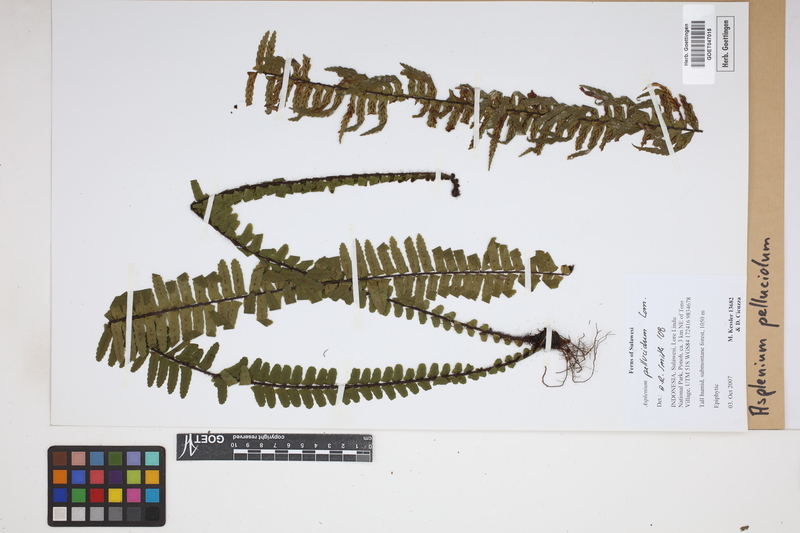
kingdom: Plantae
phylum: Tracheophyta
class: Polypodiopsida
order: Polypodiales
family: Aspleniaceae
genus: Asplenium
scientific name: Asplenium pellucidum
